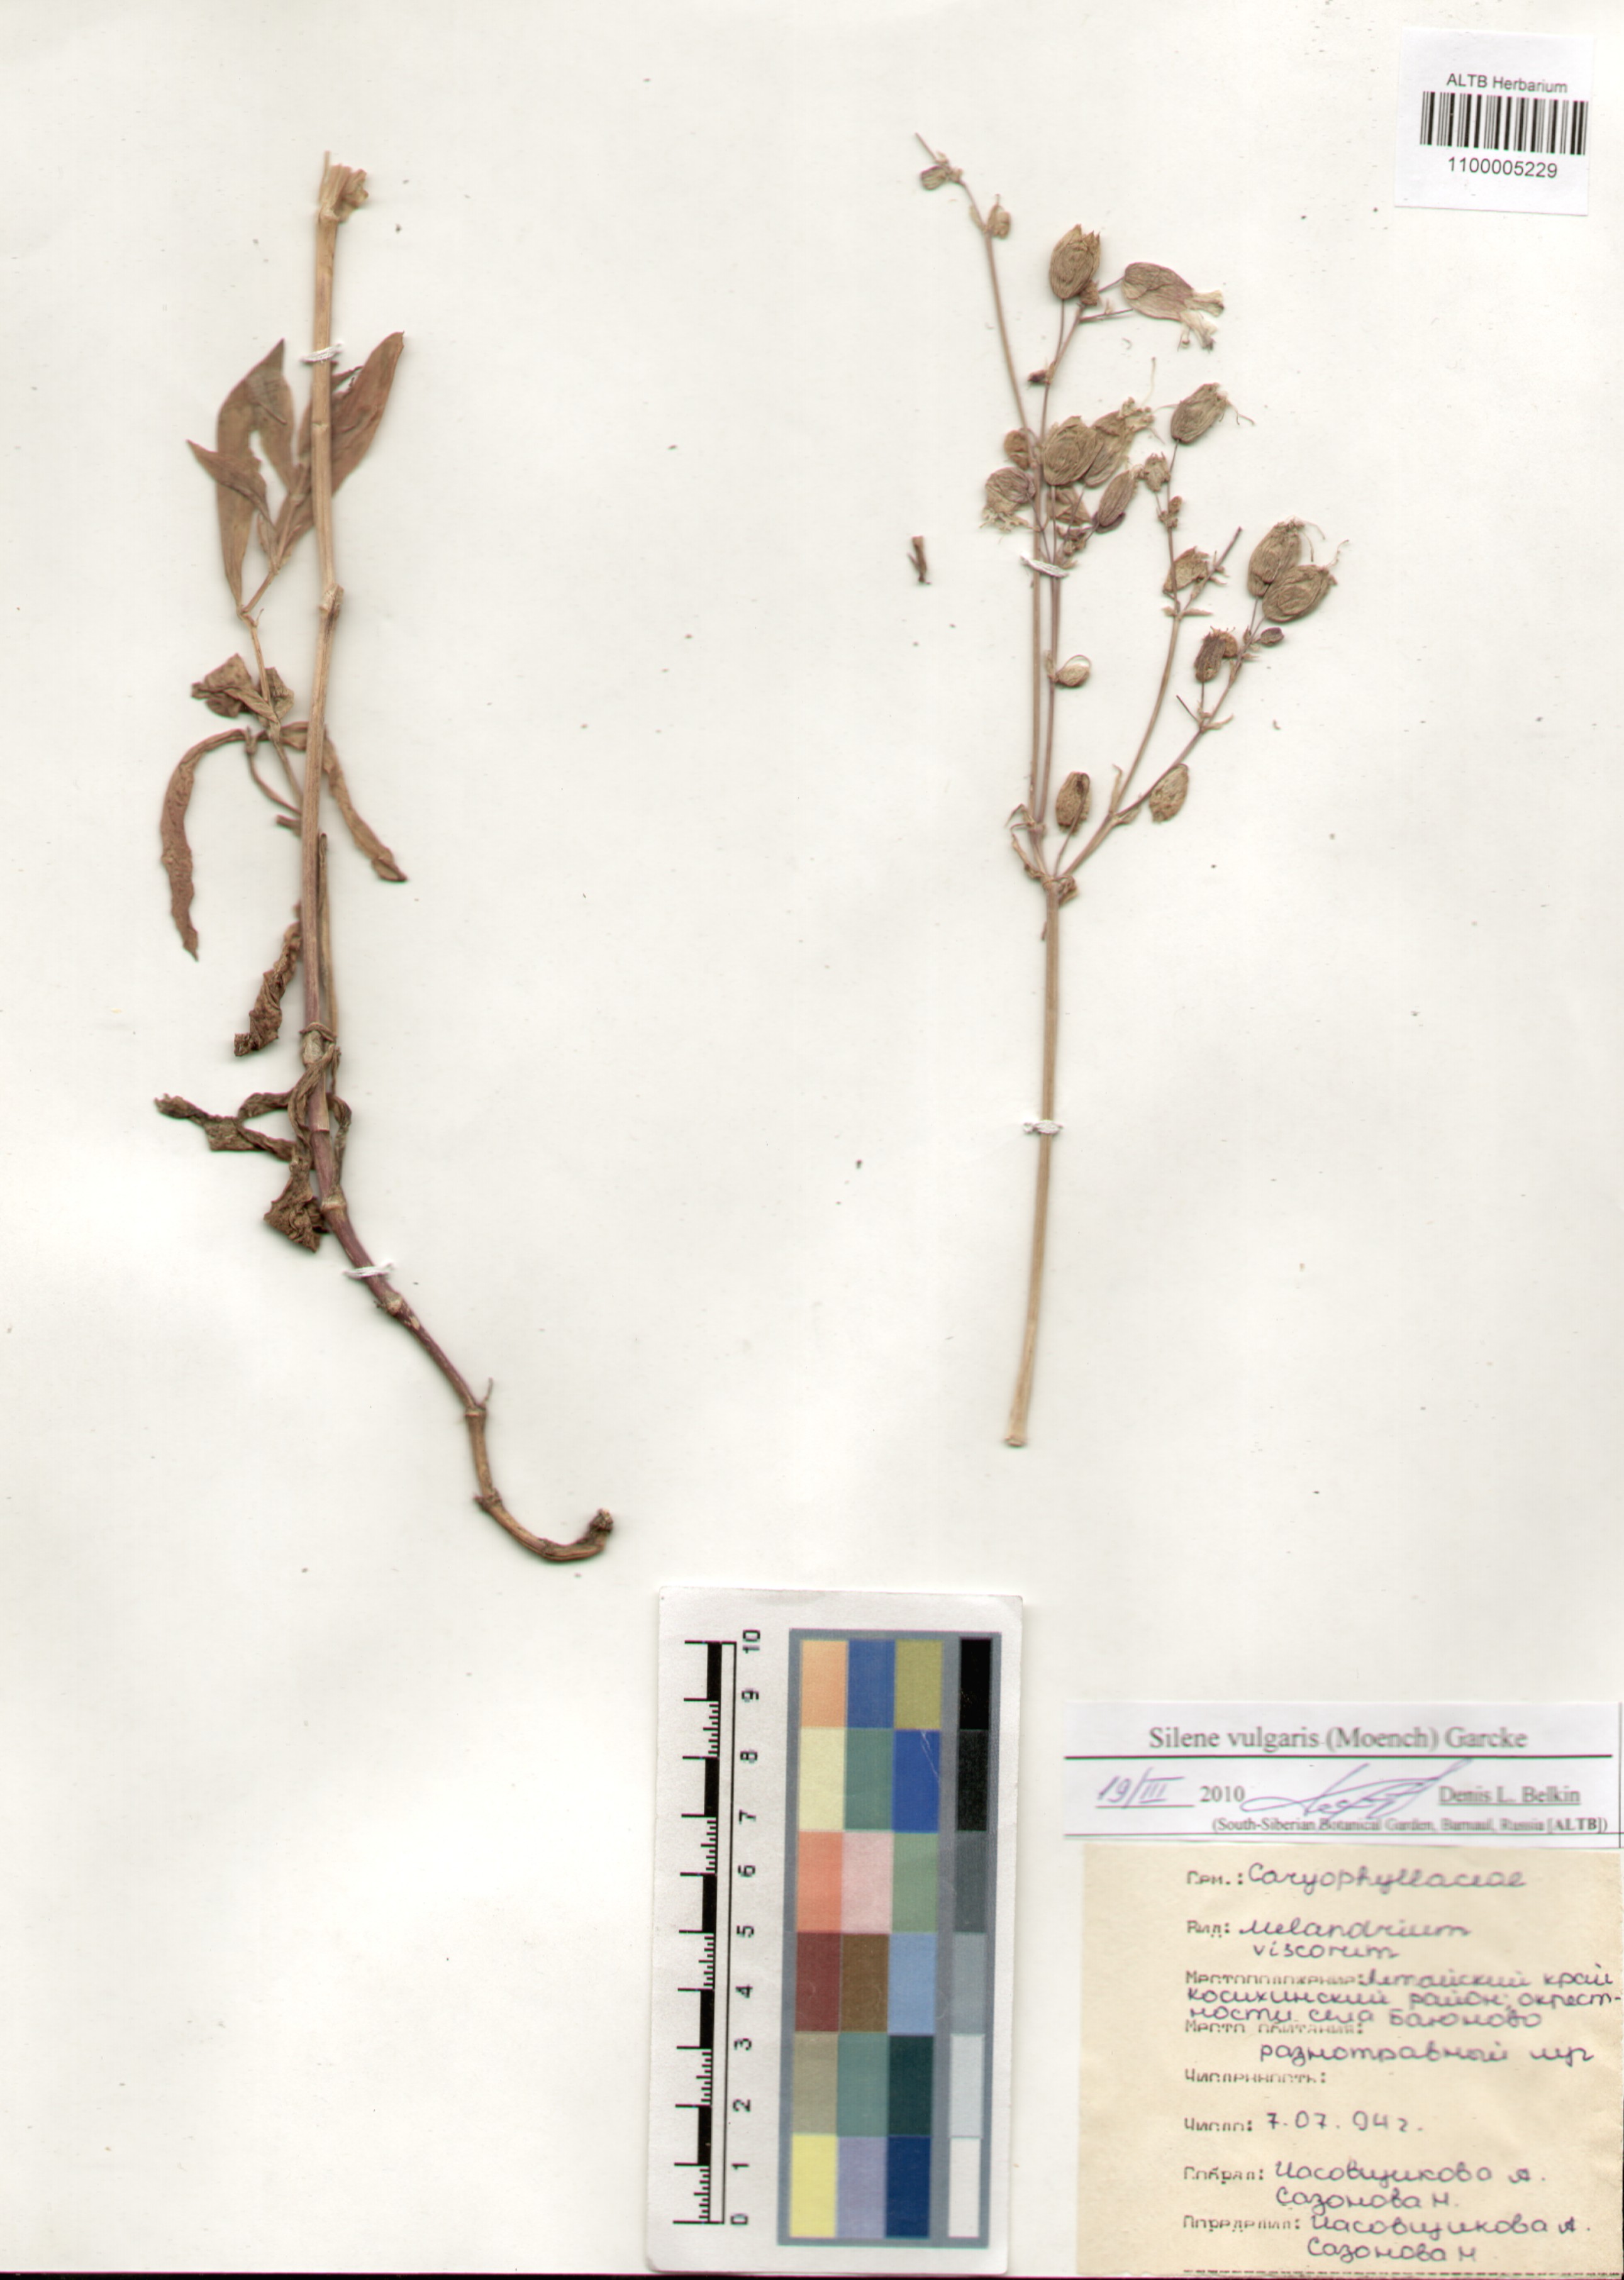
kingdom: Plantae
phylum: Tracheophyta
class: Magnoliopsida
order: Caryophyllales
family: Caryophyllaceae
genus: Silene
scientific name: Silene vulgaris
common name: Bladder campion
